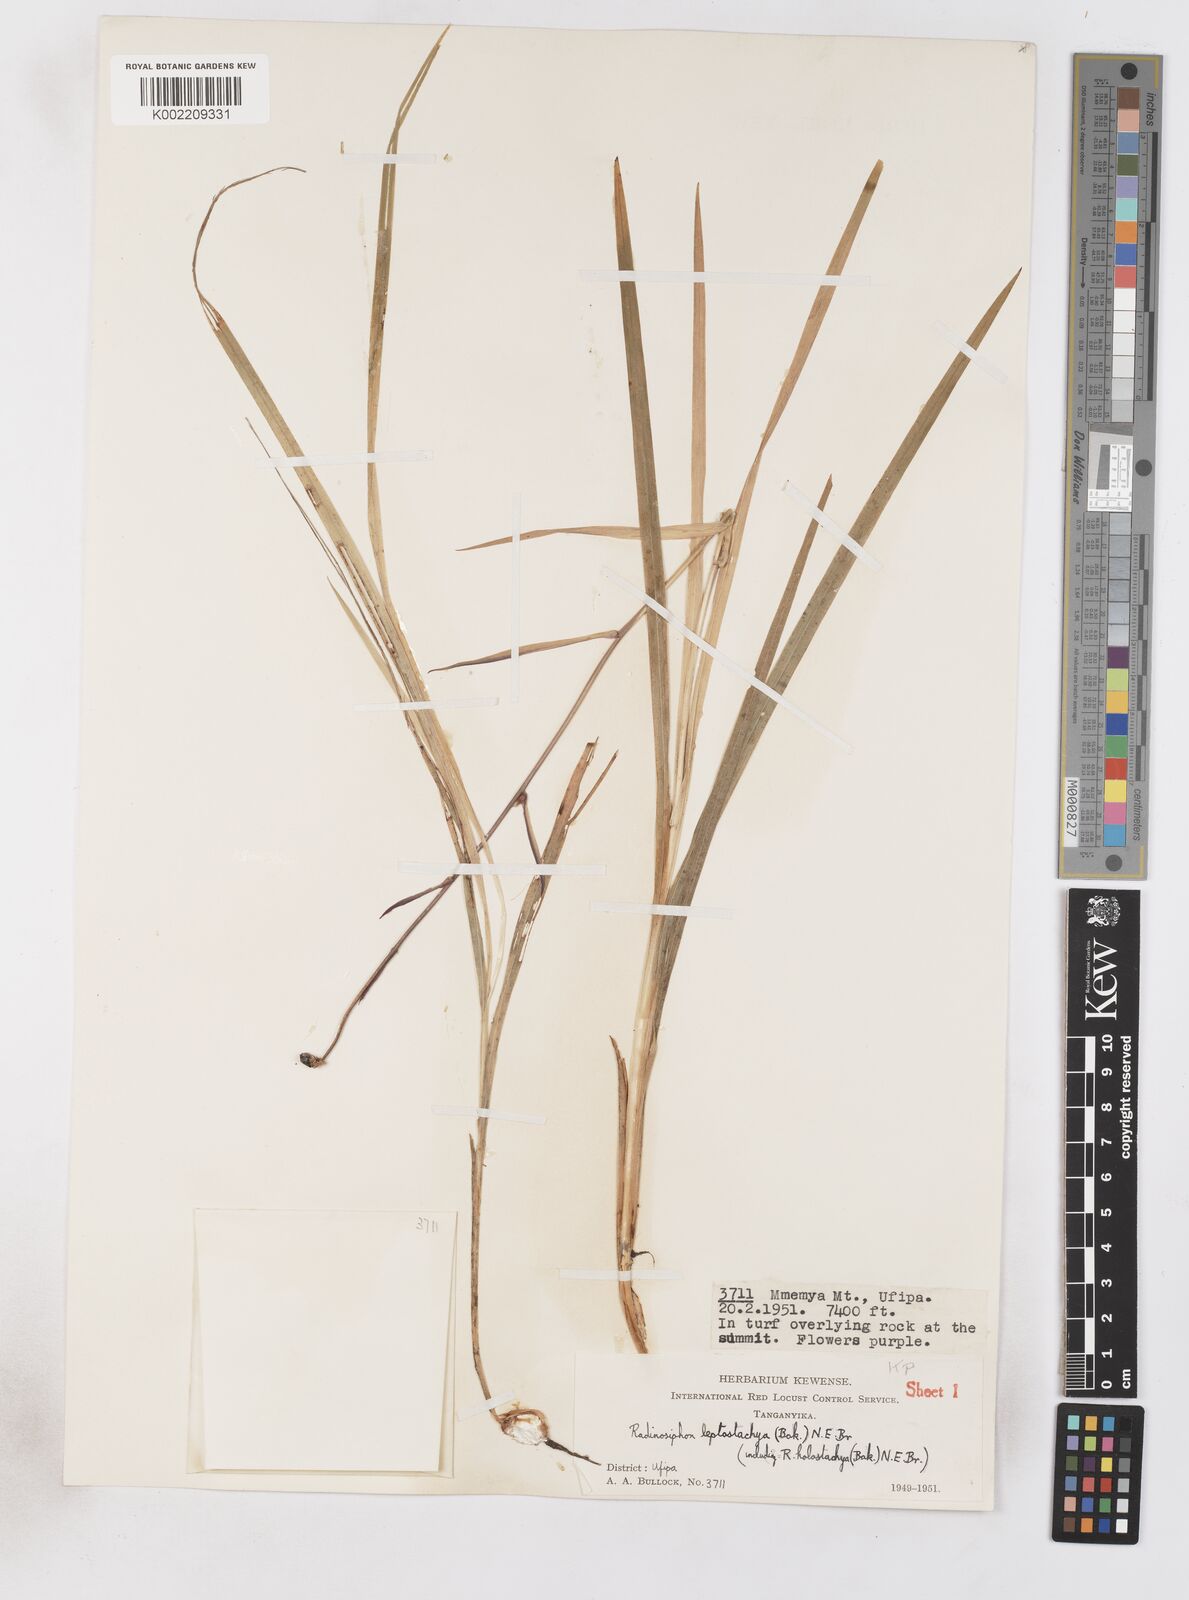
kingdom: Plantae
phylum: Tracheophyta
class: Liliopsida
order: Asparagales
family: Iridaceae
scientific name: Iridaceae
